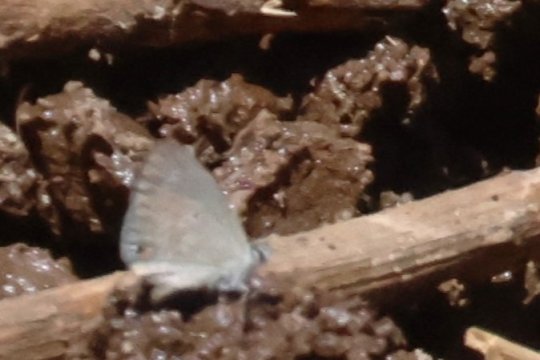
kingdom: Animalia
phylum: Arthropoda
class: Insecta
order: Lepidoptera
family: Lycaenidae
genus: Eicochrysops
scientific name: Eicochrysops messapus
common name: Cupreous Blue
